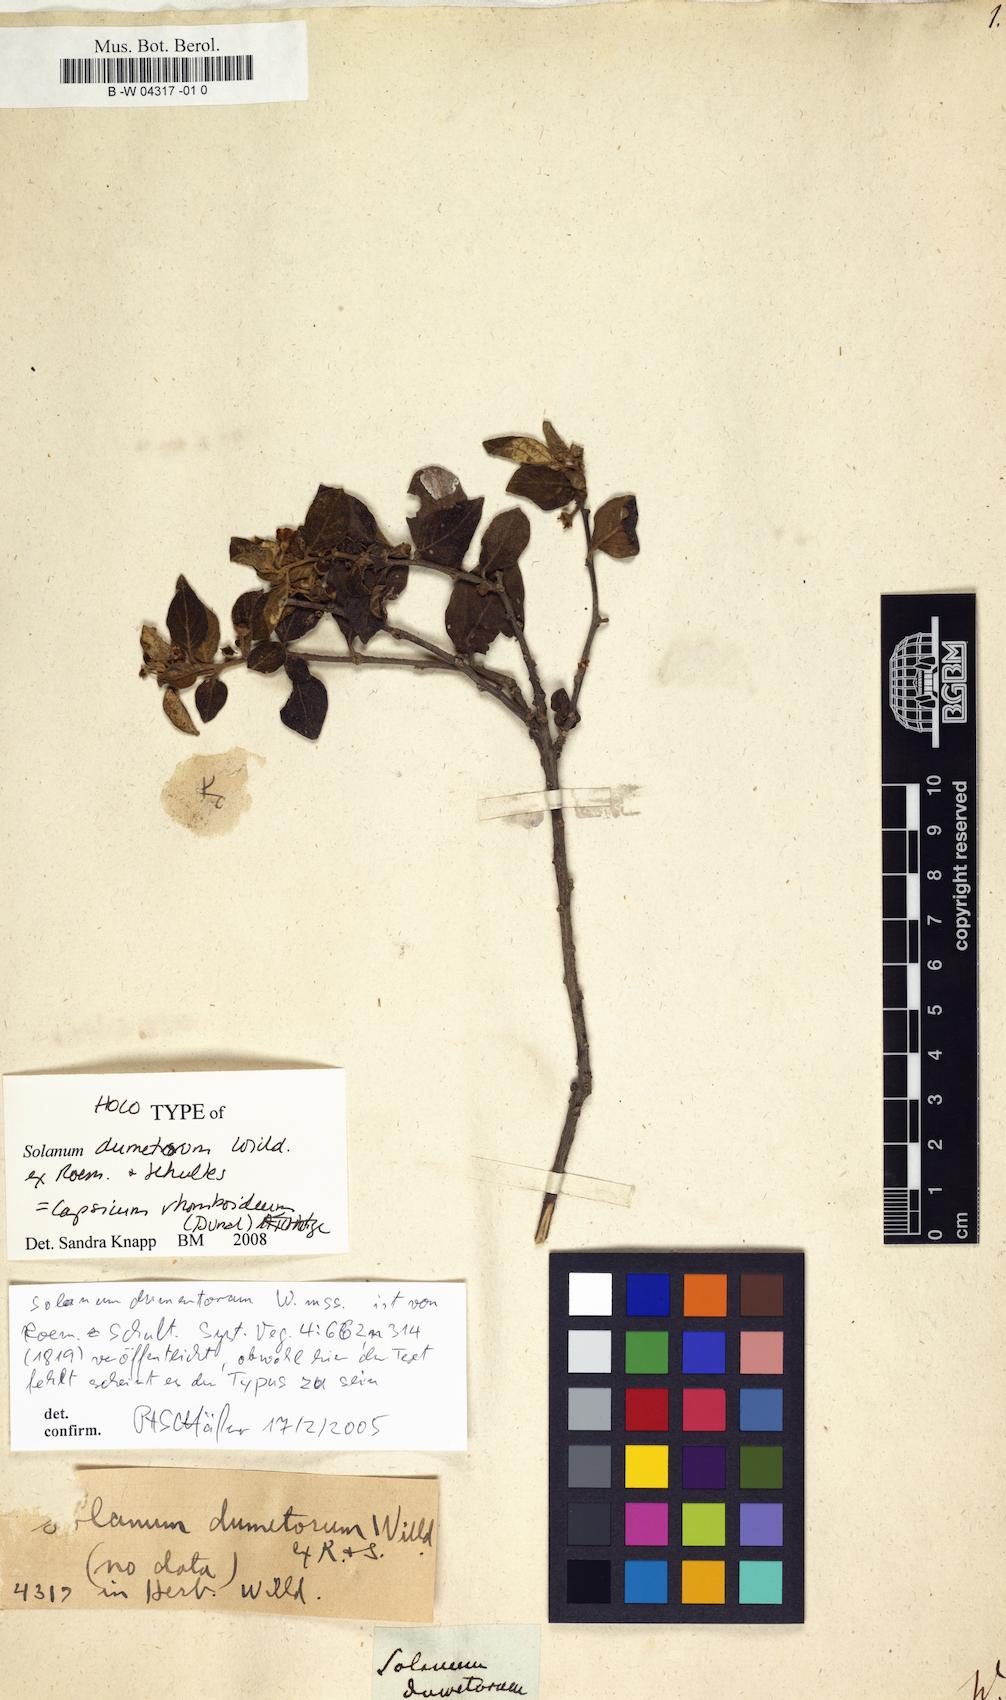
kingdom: Plantae
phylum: Tracheophyta
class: Magnoliopsida
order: Solanales
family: Solanaceae
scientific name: Solanaceae
